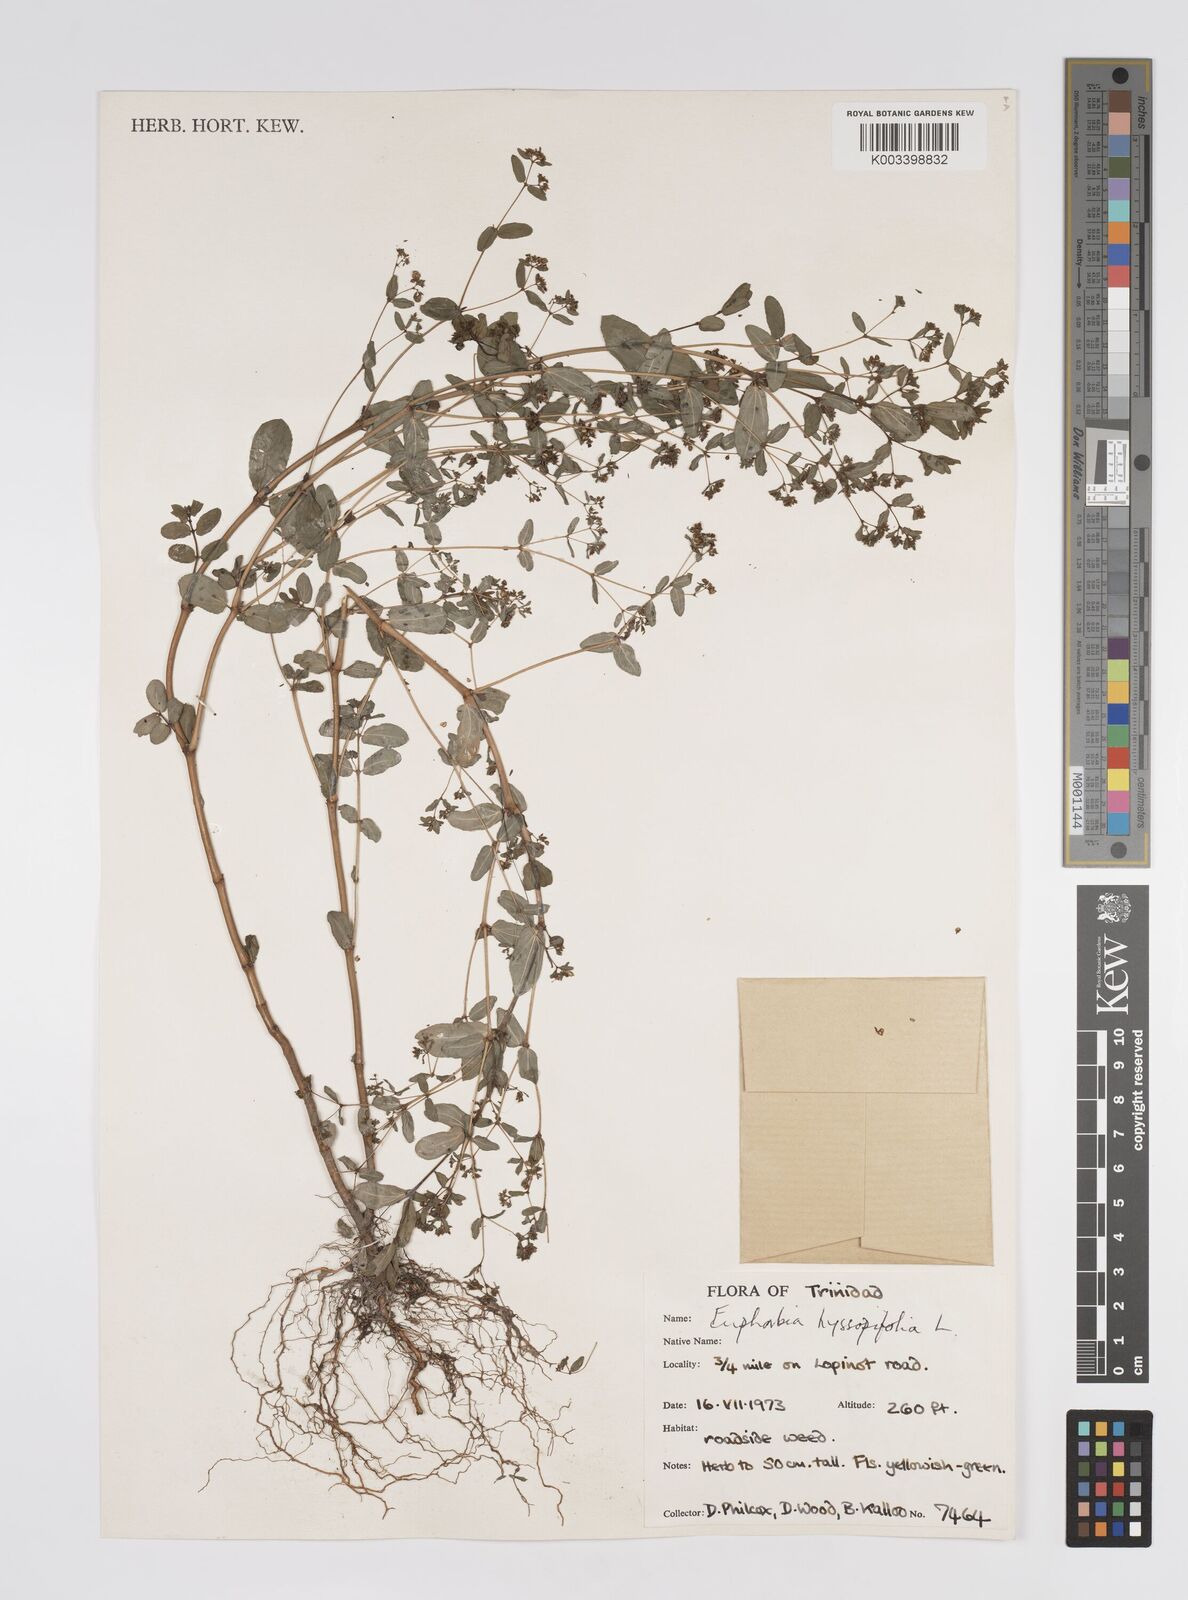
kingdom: Plantae
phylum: Tracheophyta
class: Magnoliopsida
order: Malpighiales
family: Euphorbiaceae
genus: Euphorbia
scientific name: Euphorbia hyssopifolia
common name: Hyssopleaf sandmat
